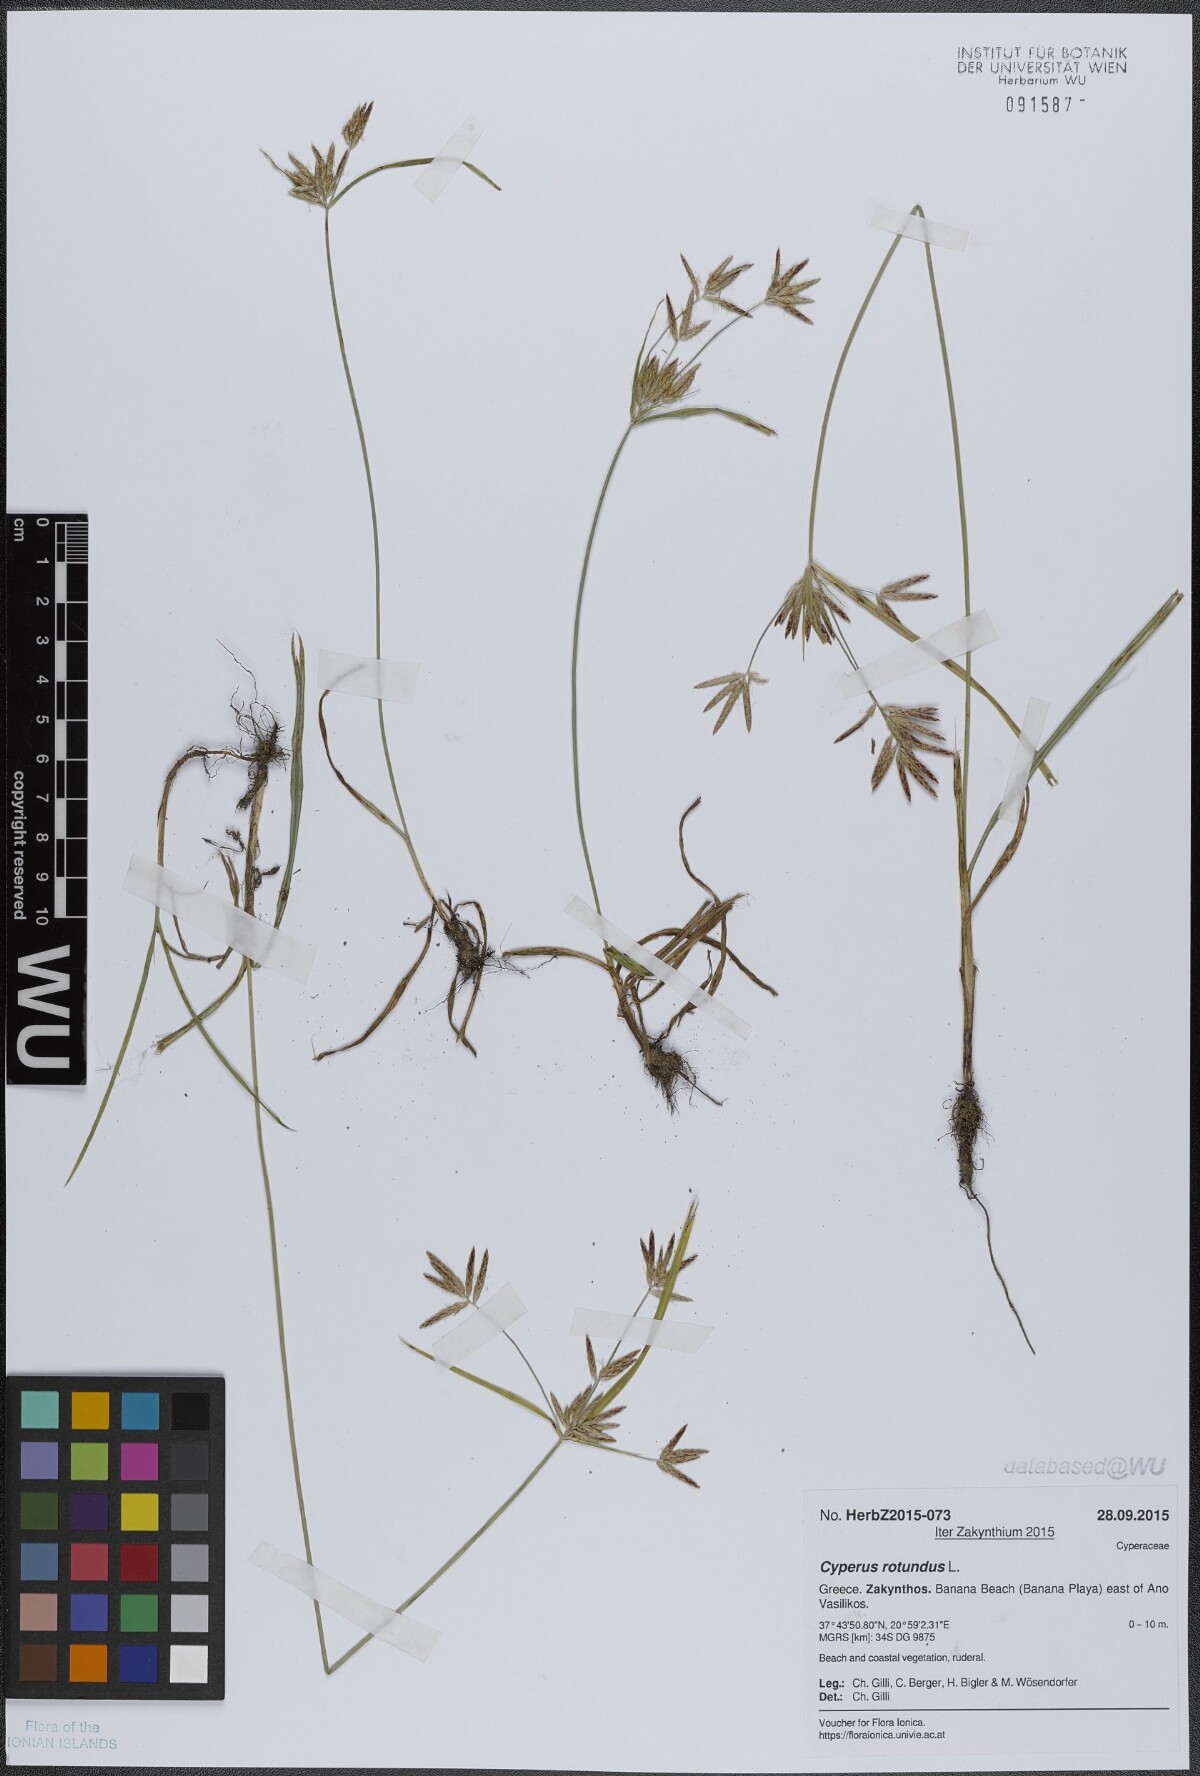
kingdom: Plantae
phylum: Tracheophyta
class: Liliopsida
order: Poales
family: Cyperaceae
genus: Cyperus
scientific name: Cyperus rotundus
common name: Nutgrass
